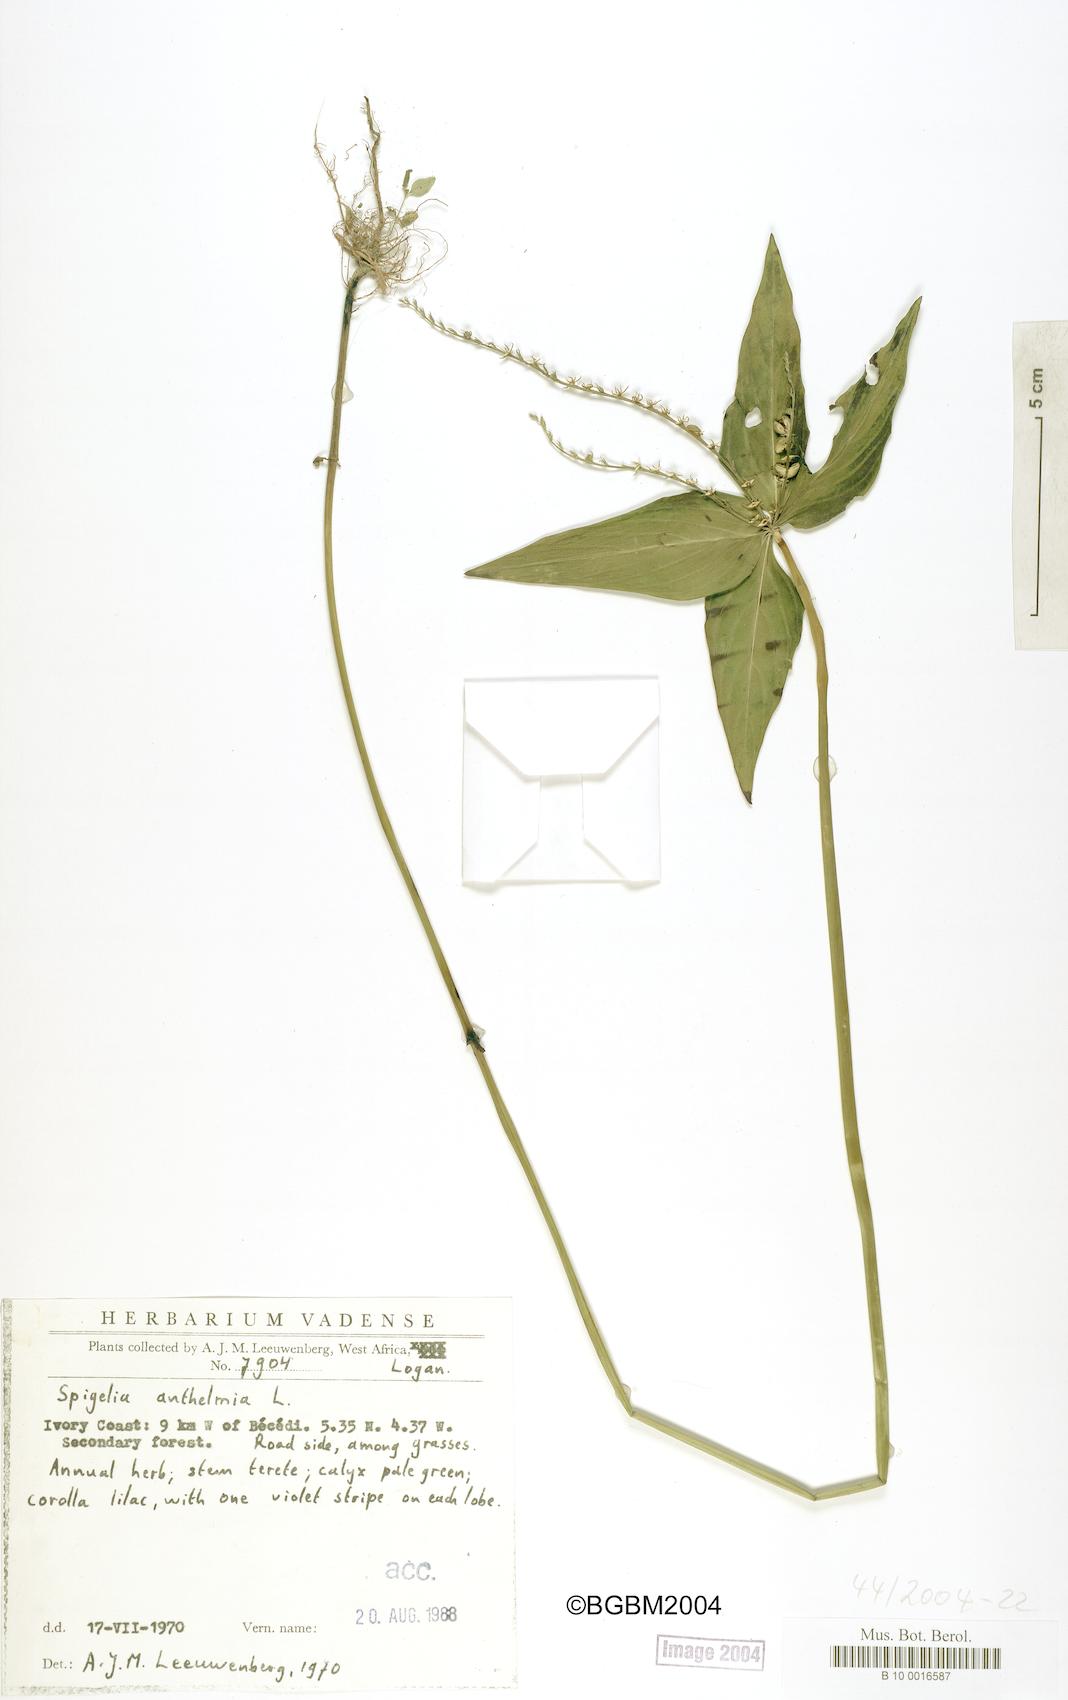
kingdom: Plantae
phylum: Tracheophyta
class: Magnoliopsida
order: Gentianales
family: Loganiaceae
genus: Spigelia
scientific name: Spigelia anthelmia
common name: West indian-pink
